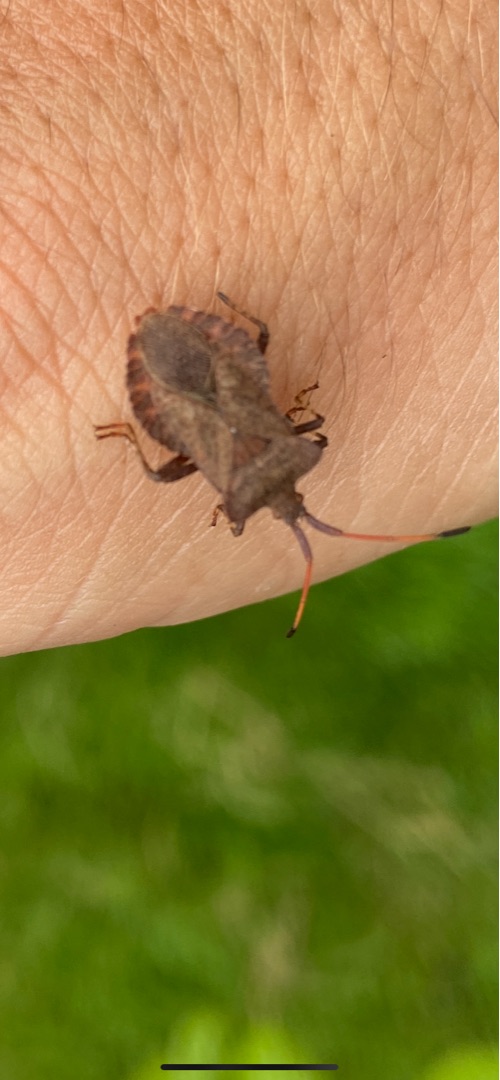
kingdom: Animalia
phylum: Arthropoda
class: Insecta
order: Hemiptera
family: Coreidae
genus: Coreus
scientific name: Coreus marginatus
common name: Skræppetæge
